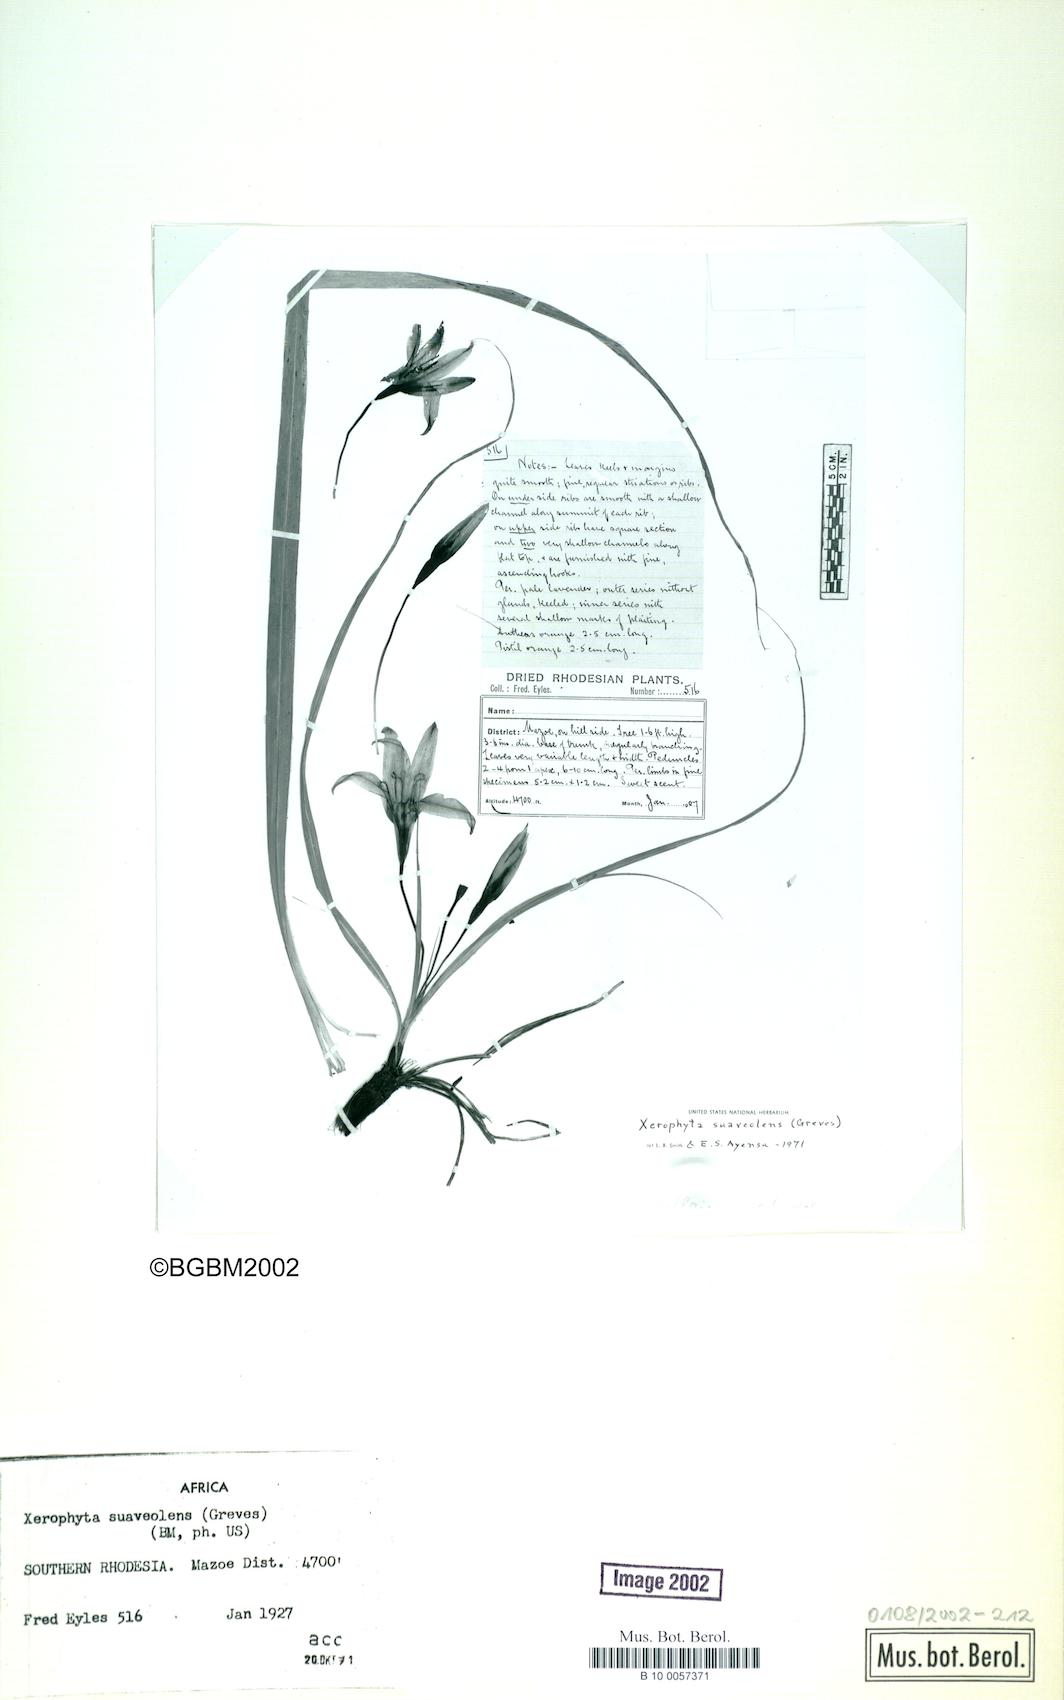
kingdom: Plantae
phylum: Tracheophyta
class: Liliopsida
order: Pandanales
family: Velloziaceae
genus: Xerophyta
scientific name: Xerophyta suaveolens
